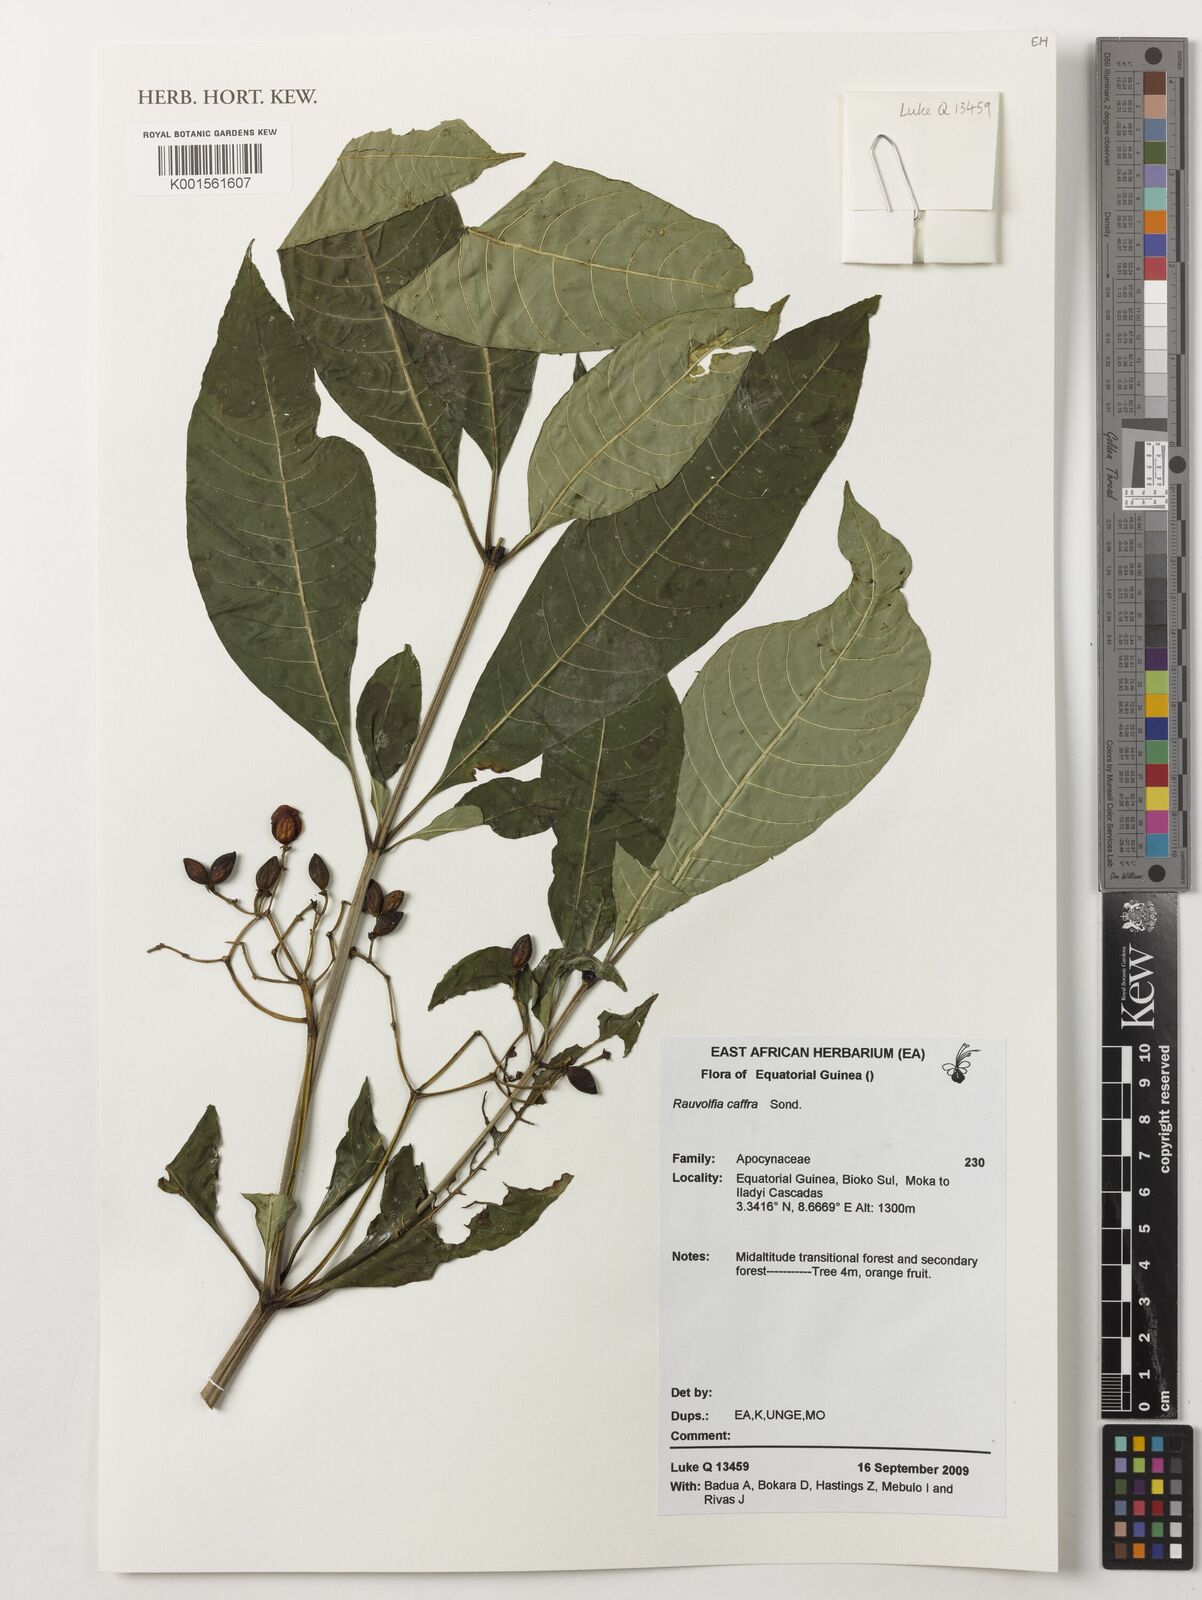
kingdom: Plantae
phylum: Tracheophyta
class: Magnoliopsida
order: Gentianales
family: Apocynaceae
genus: Rauvolfia
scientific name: Rauvolfia caffra
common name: Quininetree
